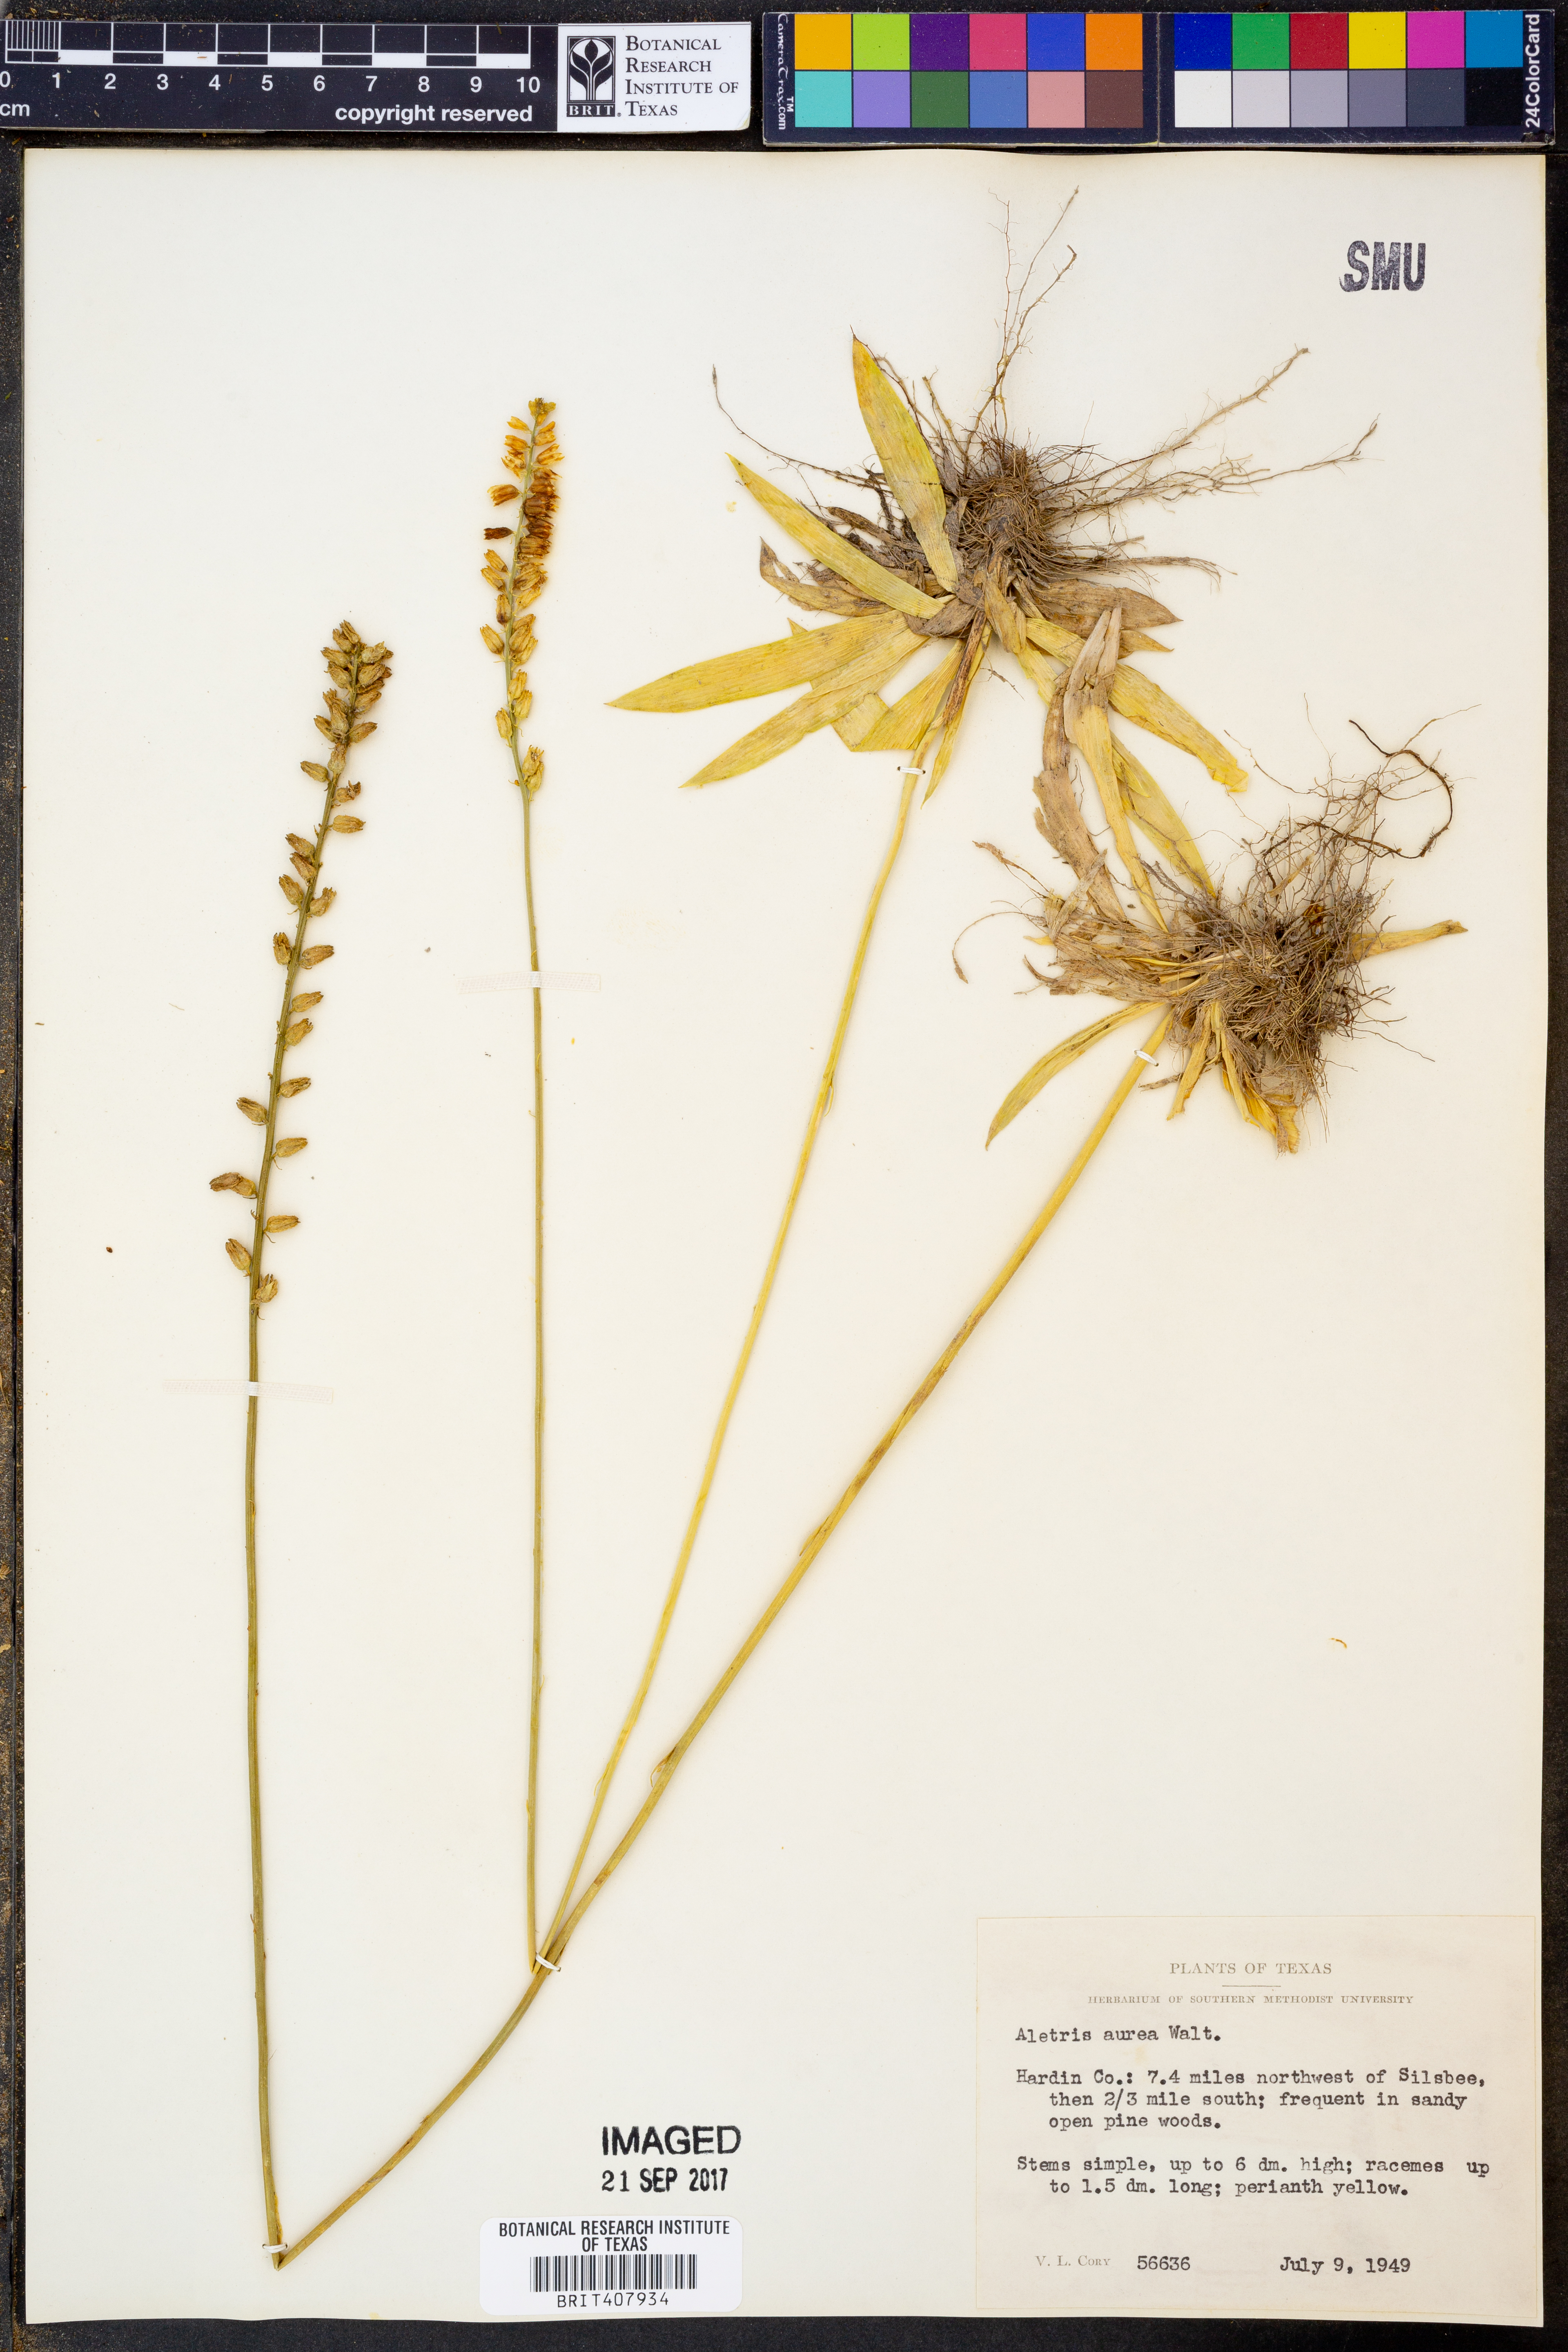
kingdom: Plantae
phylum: Tracheophyta
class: Liliopsida
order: Dioscoreales
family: Nartheciaceae
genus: Aletris
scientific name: Aletris aurea
